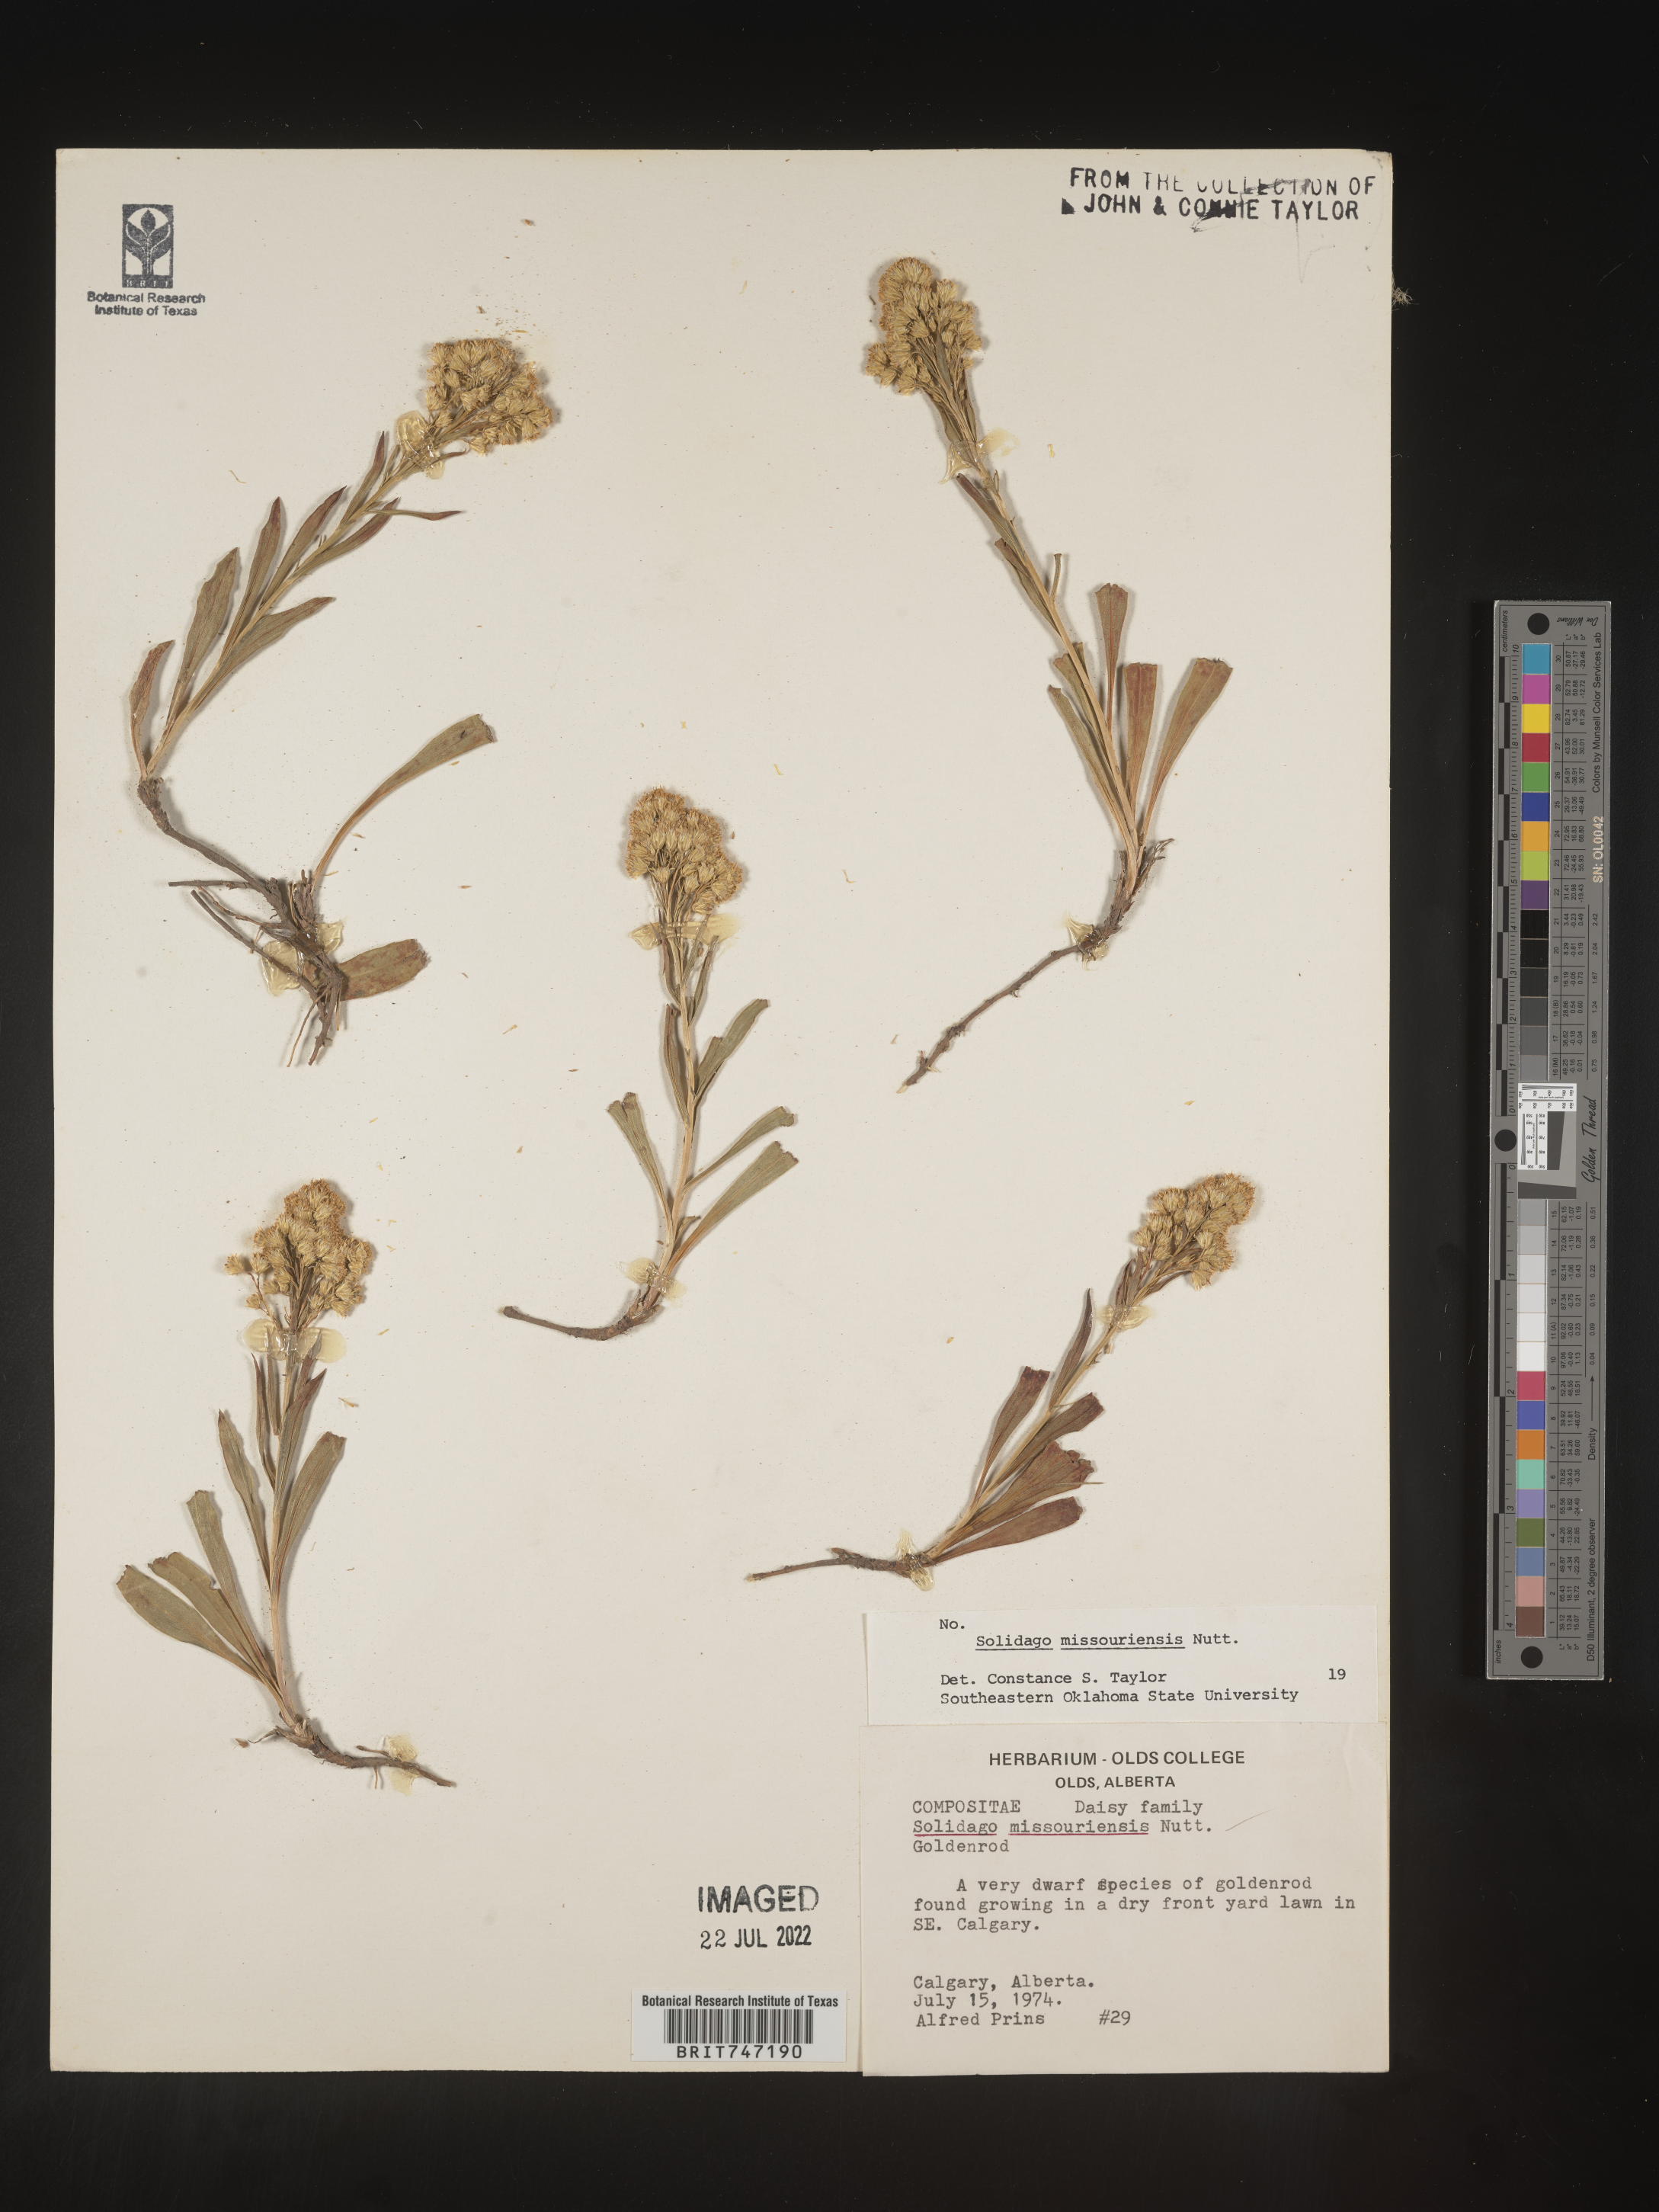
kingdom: Plantae
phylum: Tracheophyta
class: Magnoliopsida
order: Asterales
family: Asteraceae
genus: Solidago
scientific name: Solidago missouriensis
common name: Prairie goldenrod
